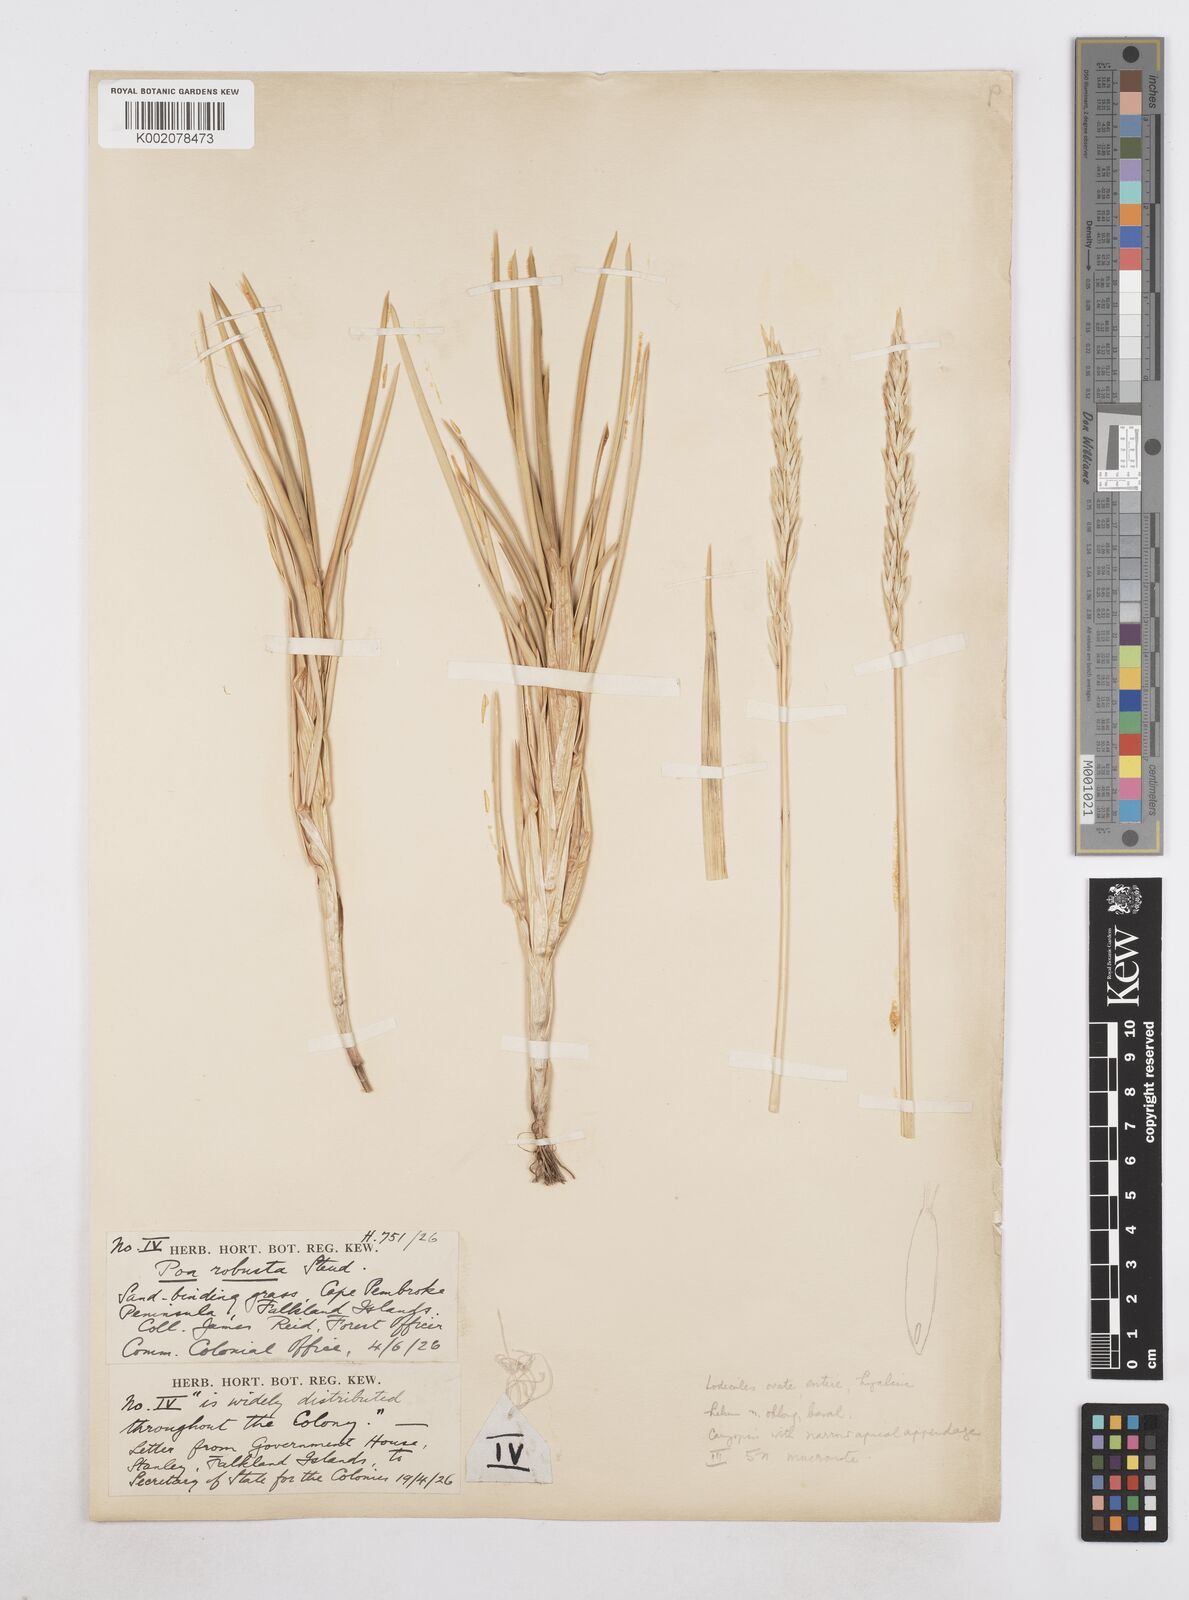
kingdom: Plantae
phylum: Tracheophyta
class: Liliopsida
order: Poales
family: Poaceae
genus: Nicoraepoa
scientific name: Nicoraepoa chonotica
